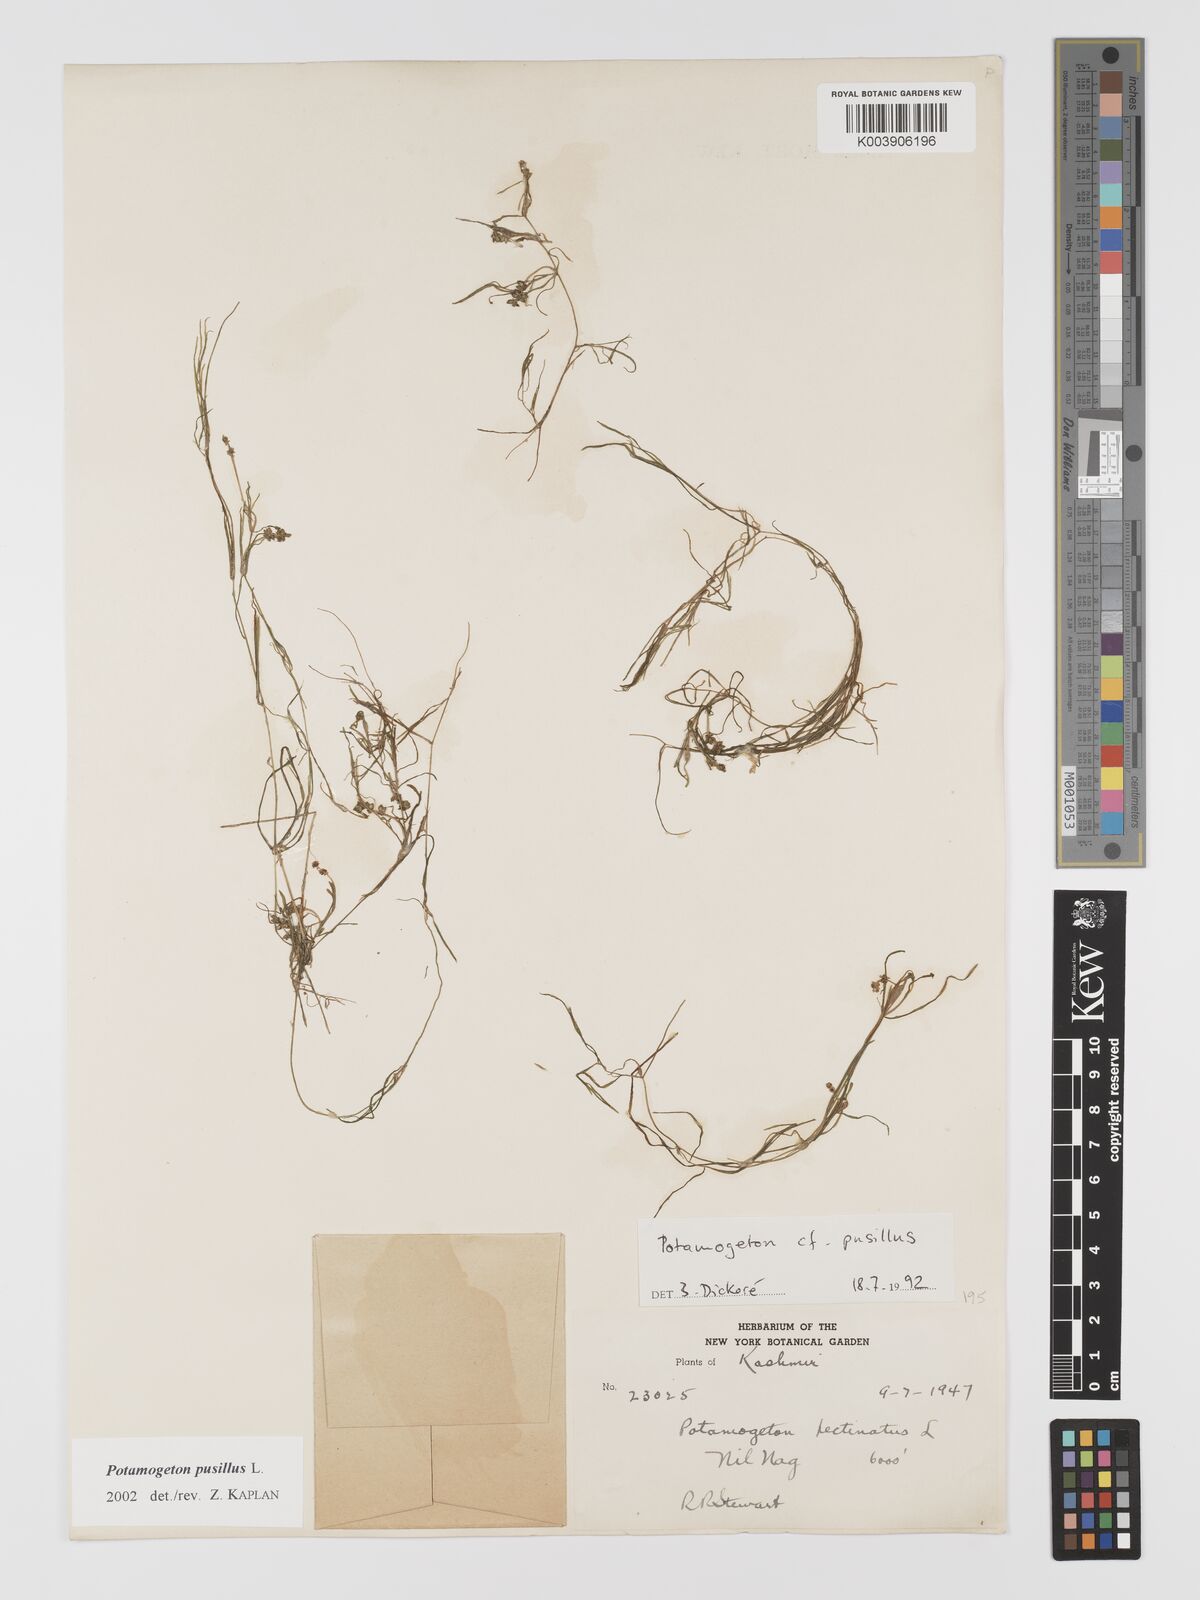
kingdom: Plantae
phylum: Tracheophyta
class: Liliopsida
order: Alismatales
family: Potamogetonaceae
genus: Potamogeton
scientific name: Potamogeton pusillus
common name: Lesser pondweed
